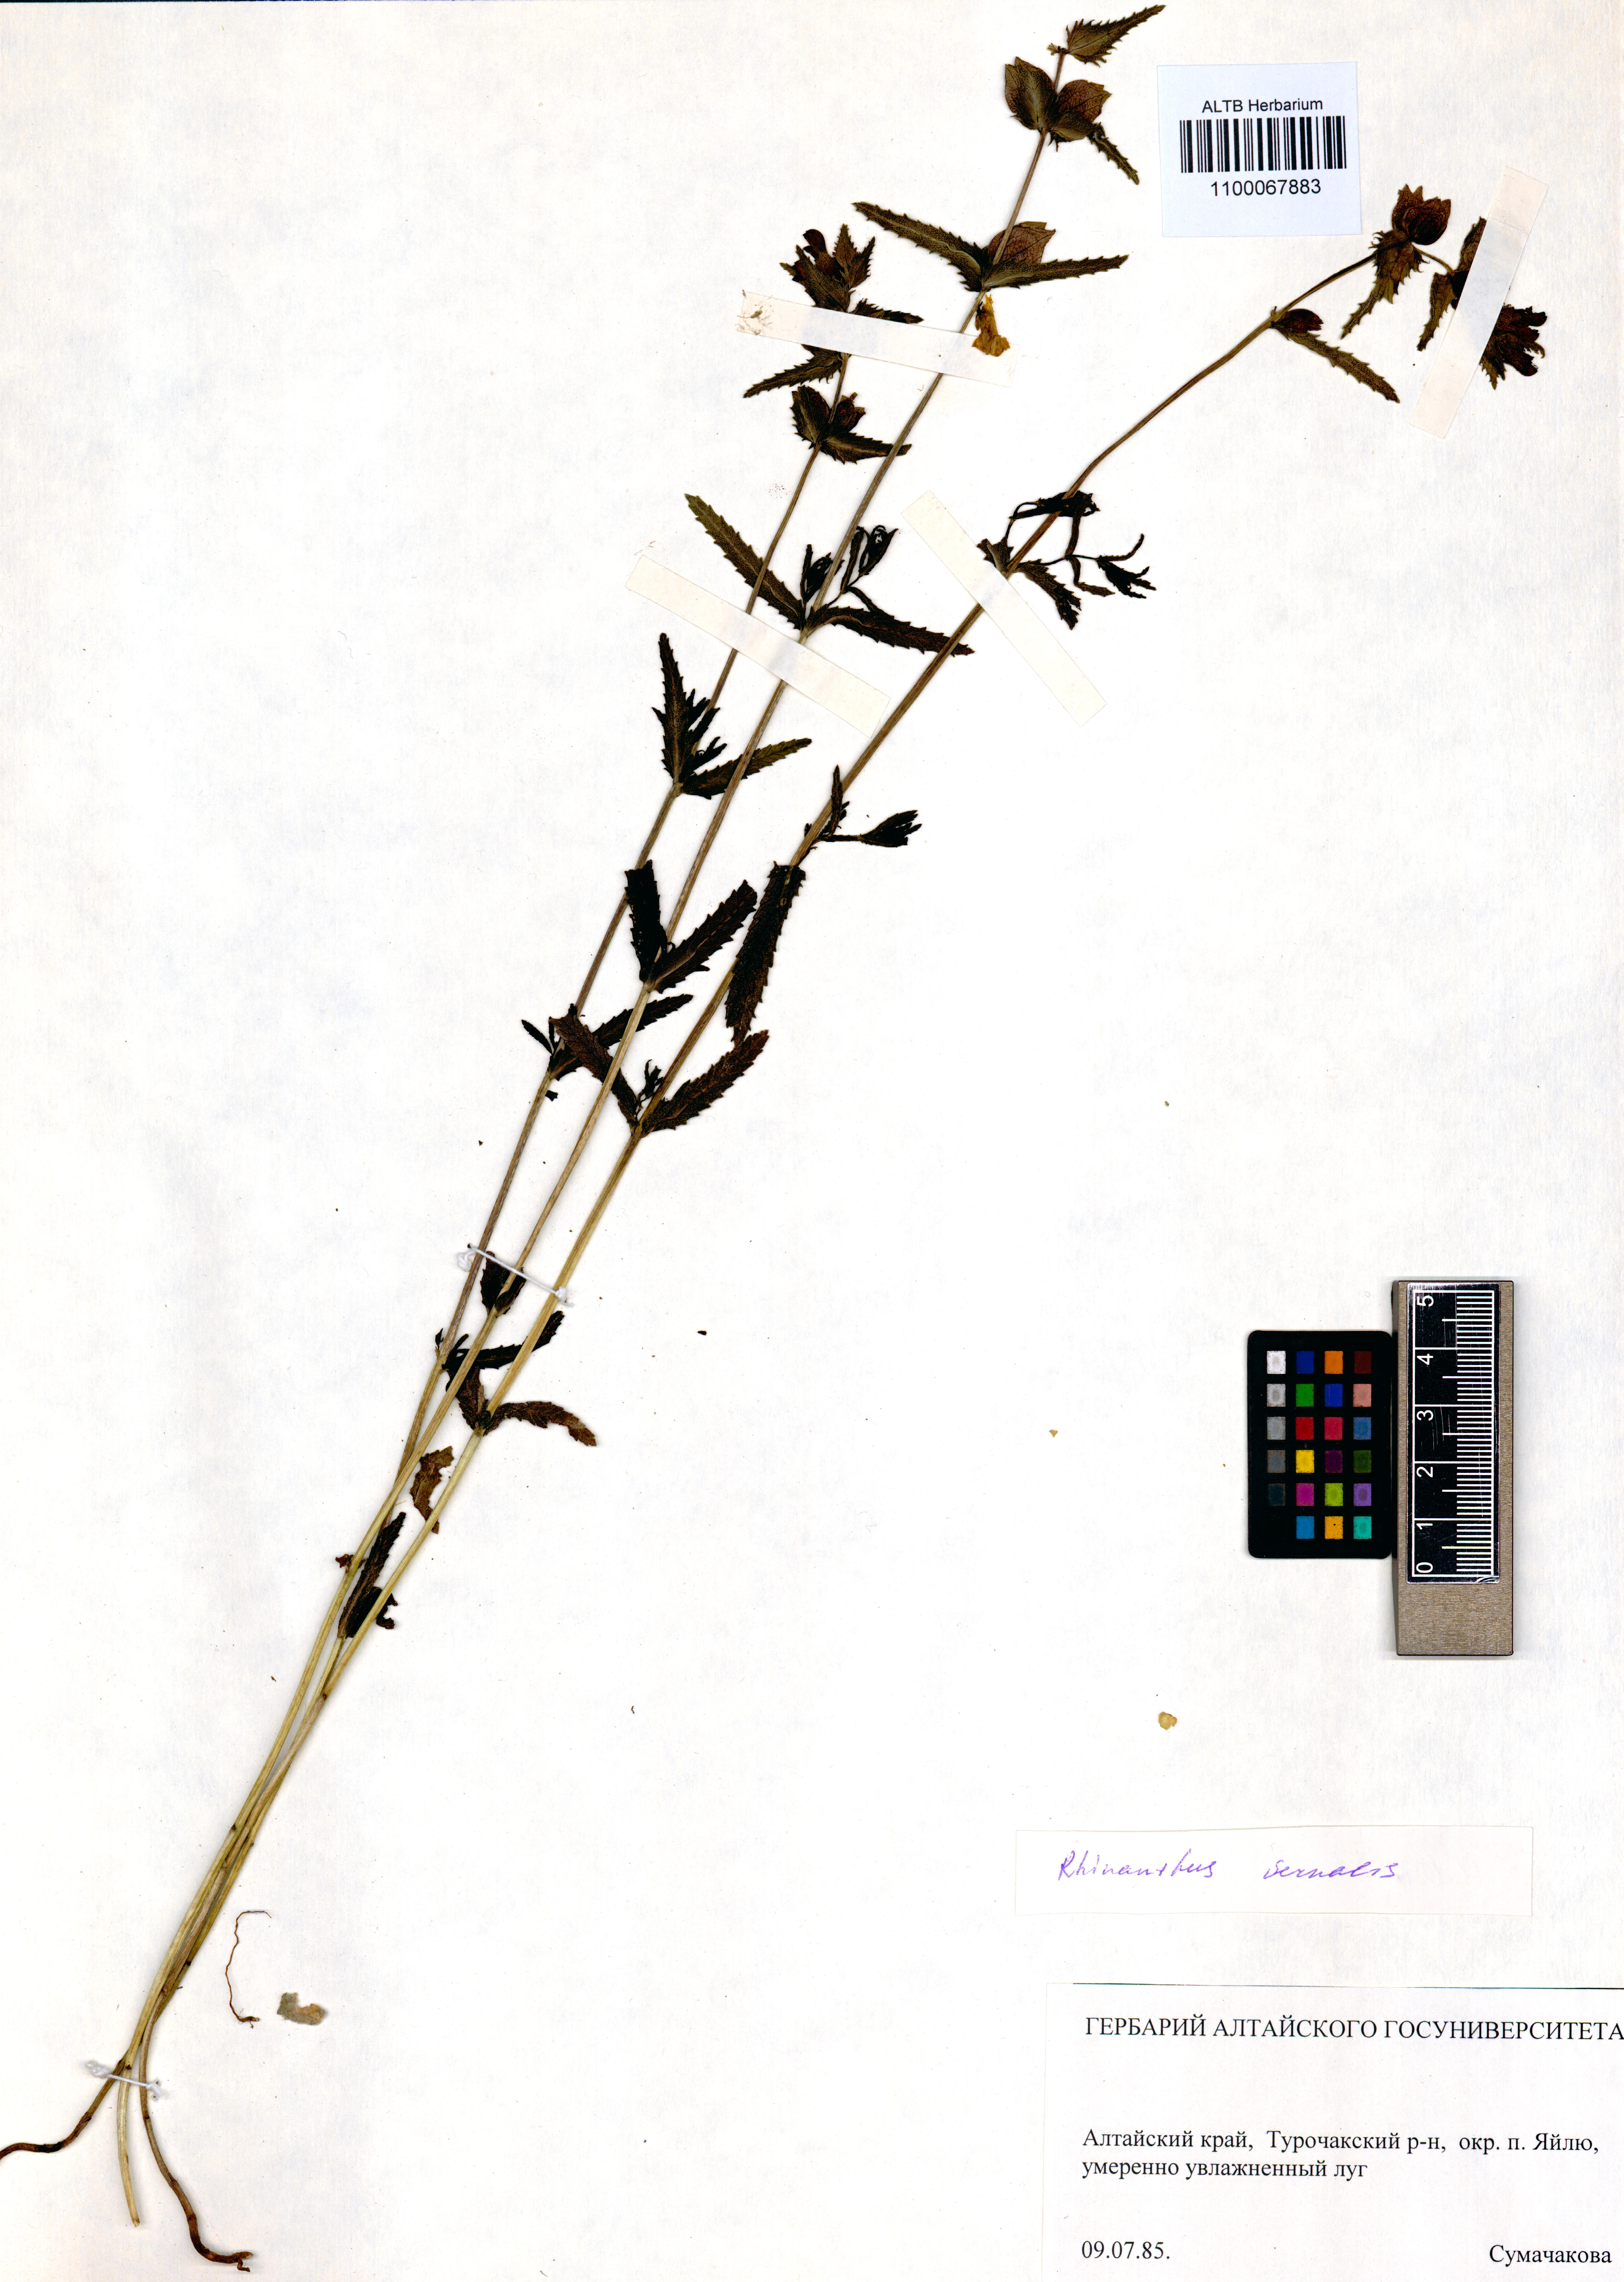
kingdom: Plantae
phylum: Tracheophyta
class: Magnoliopsida
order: Lamiales
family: Orobanchaceae
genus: Rhinanthus
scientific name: Rhinanthus serotinus
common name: Late-flowering yellow rattle
